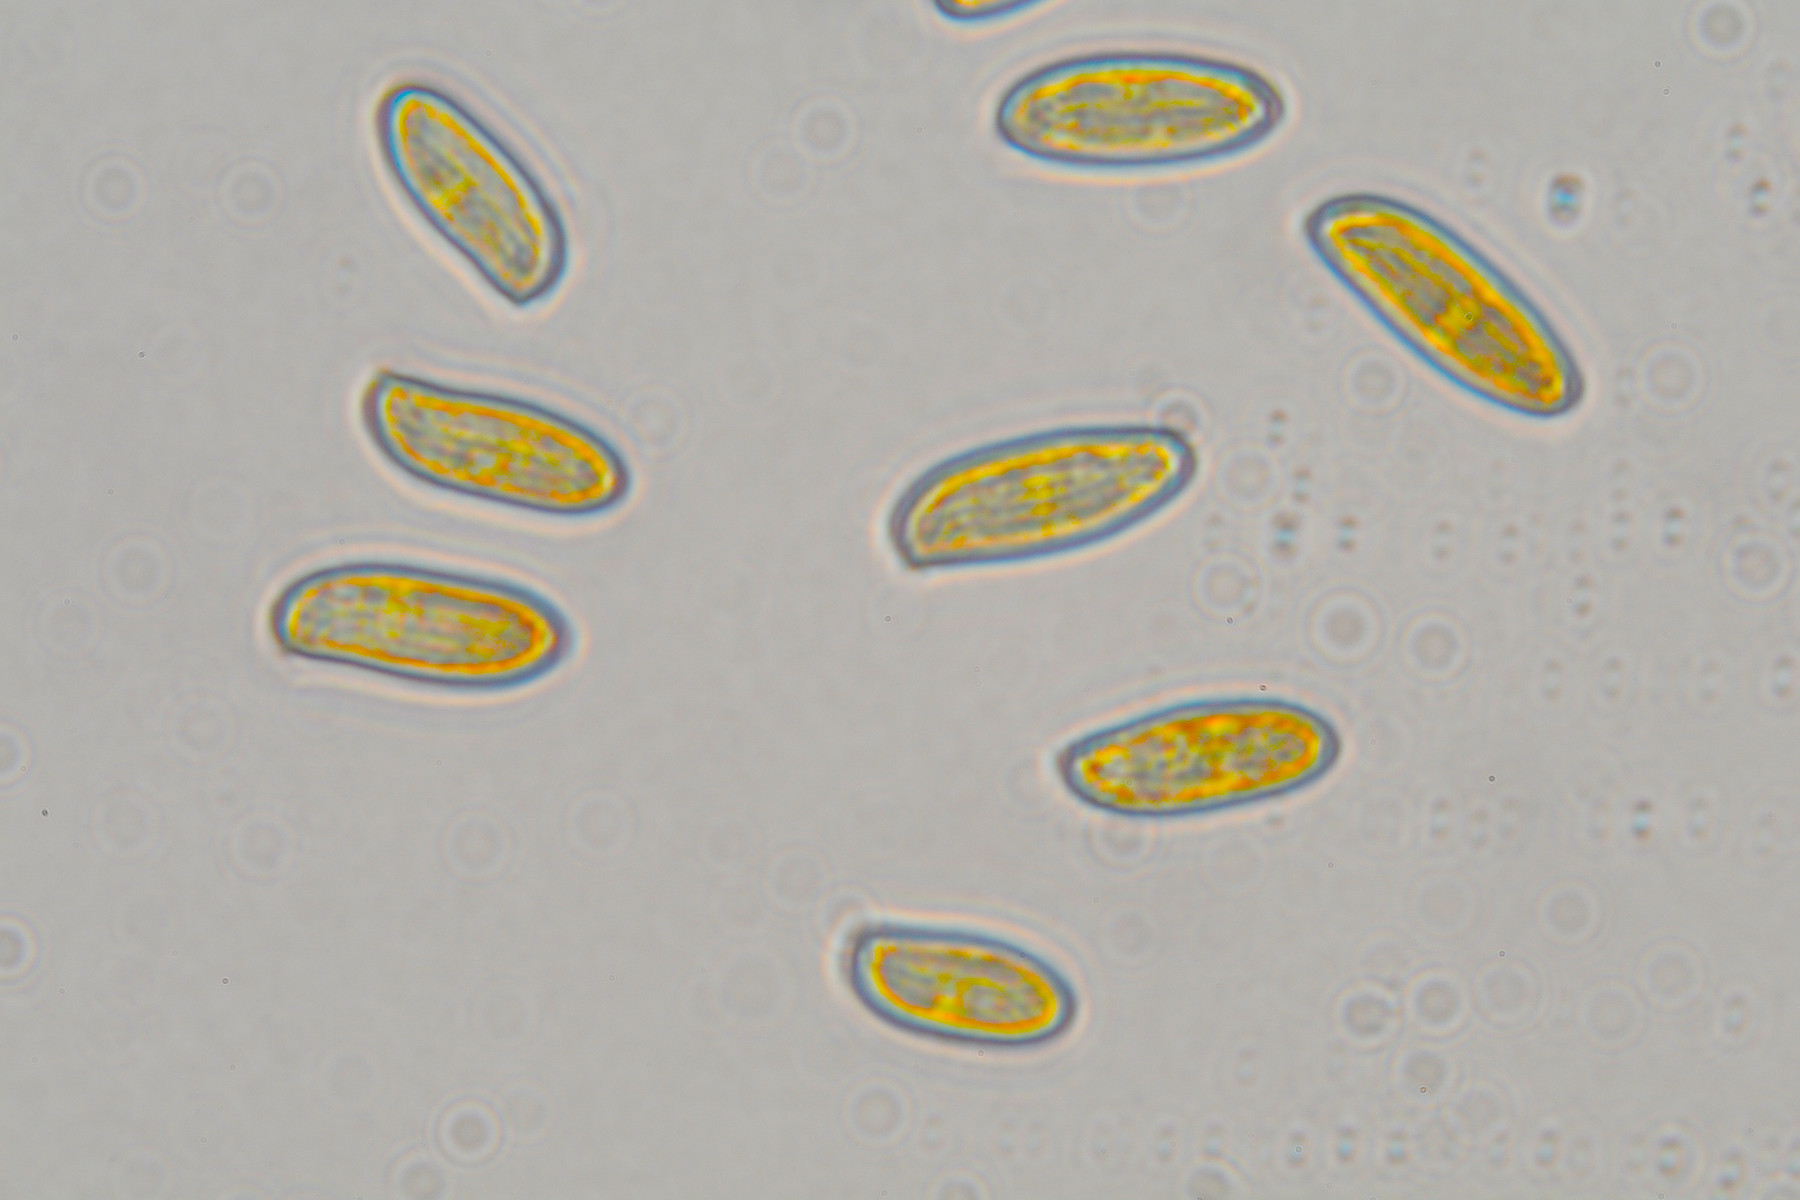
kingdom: Fungi
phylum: Basidiomycota
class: Agaricomycetes
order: Boletales
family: Boletaceae
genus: Xerocomellus
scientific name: Xerocomellus cisalpinus
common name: finsprukken rørhat
